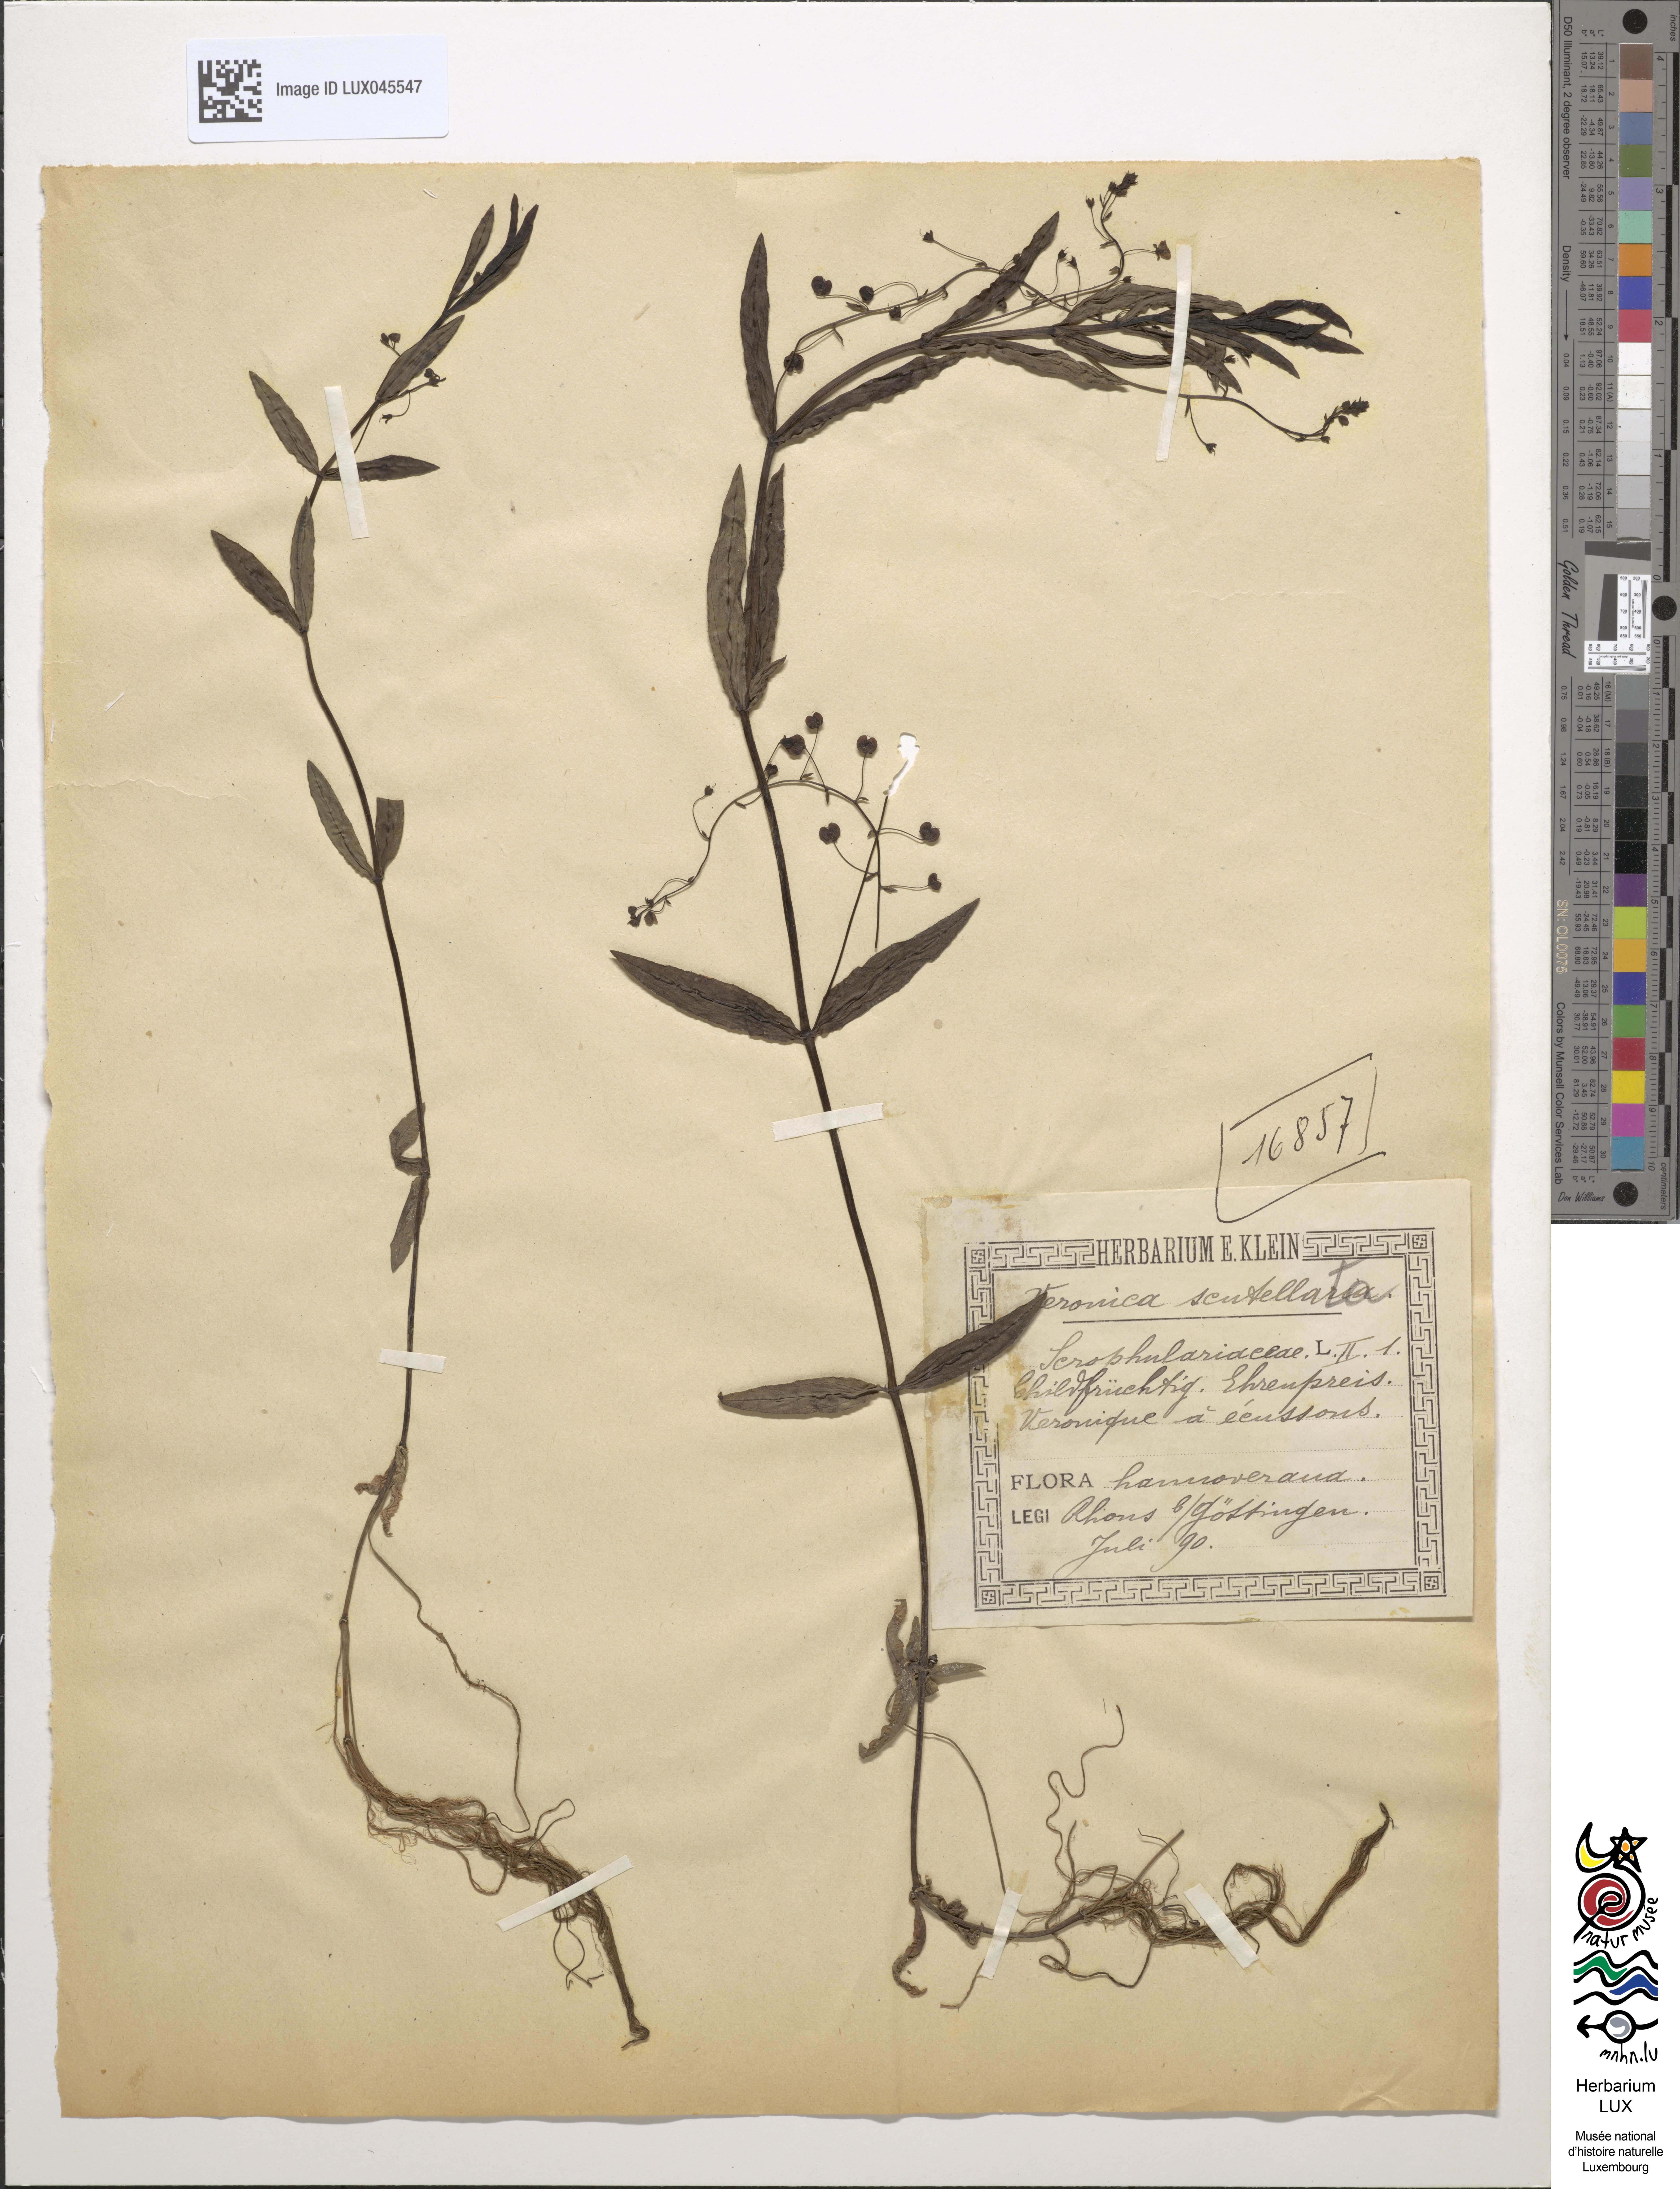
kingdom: Plantae
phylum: Tracheophyta
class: Magnoliopsida
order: Lamiales
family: Plantaginaceae
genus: Veronica
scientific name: Veronica scutellata
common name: Marsh speedwell
